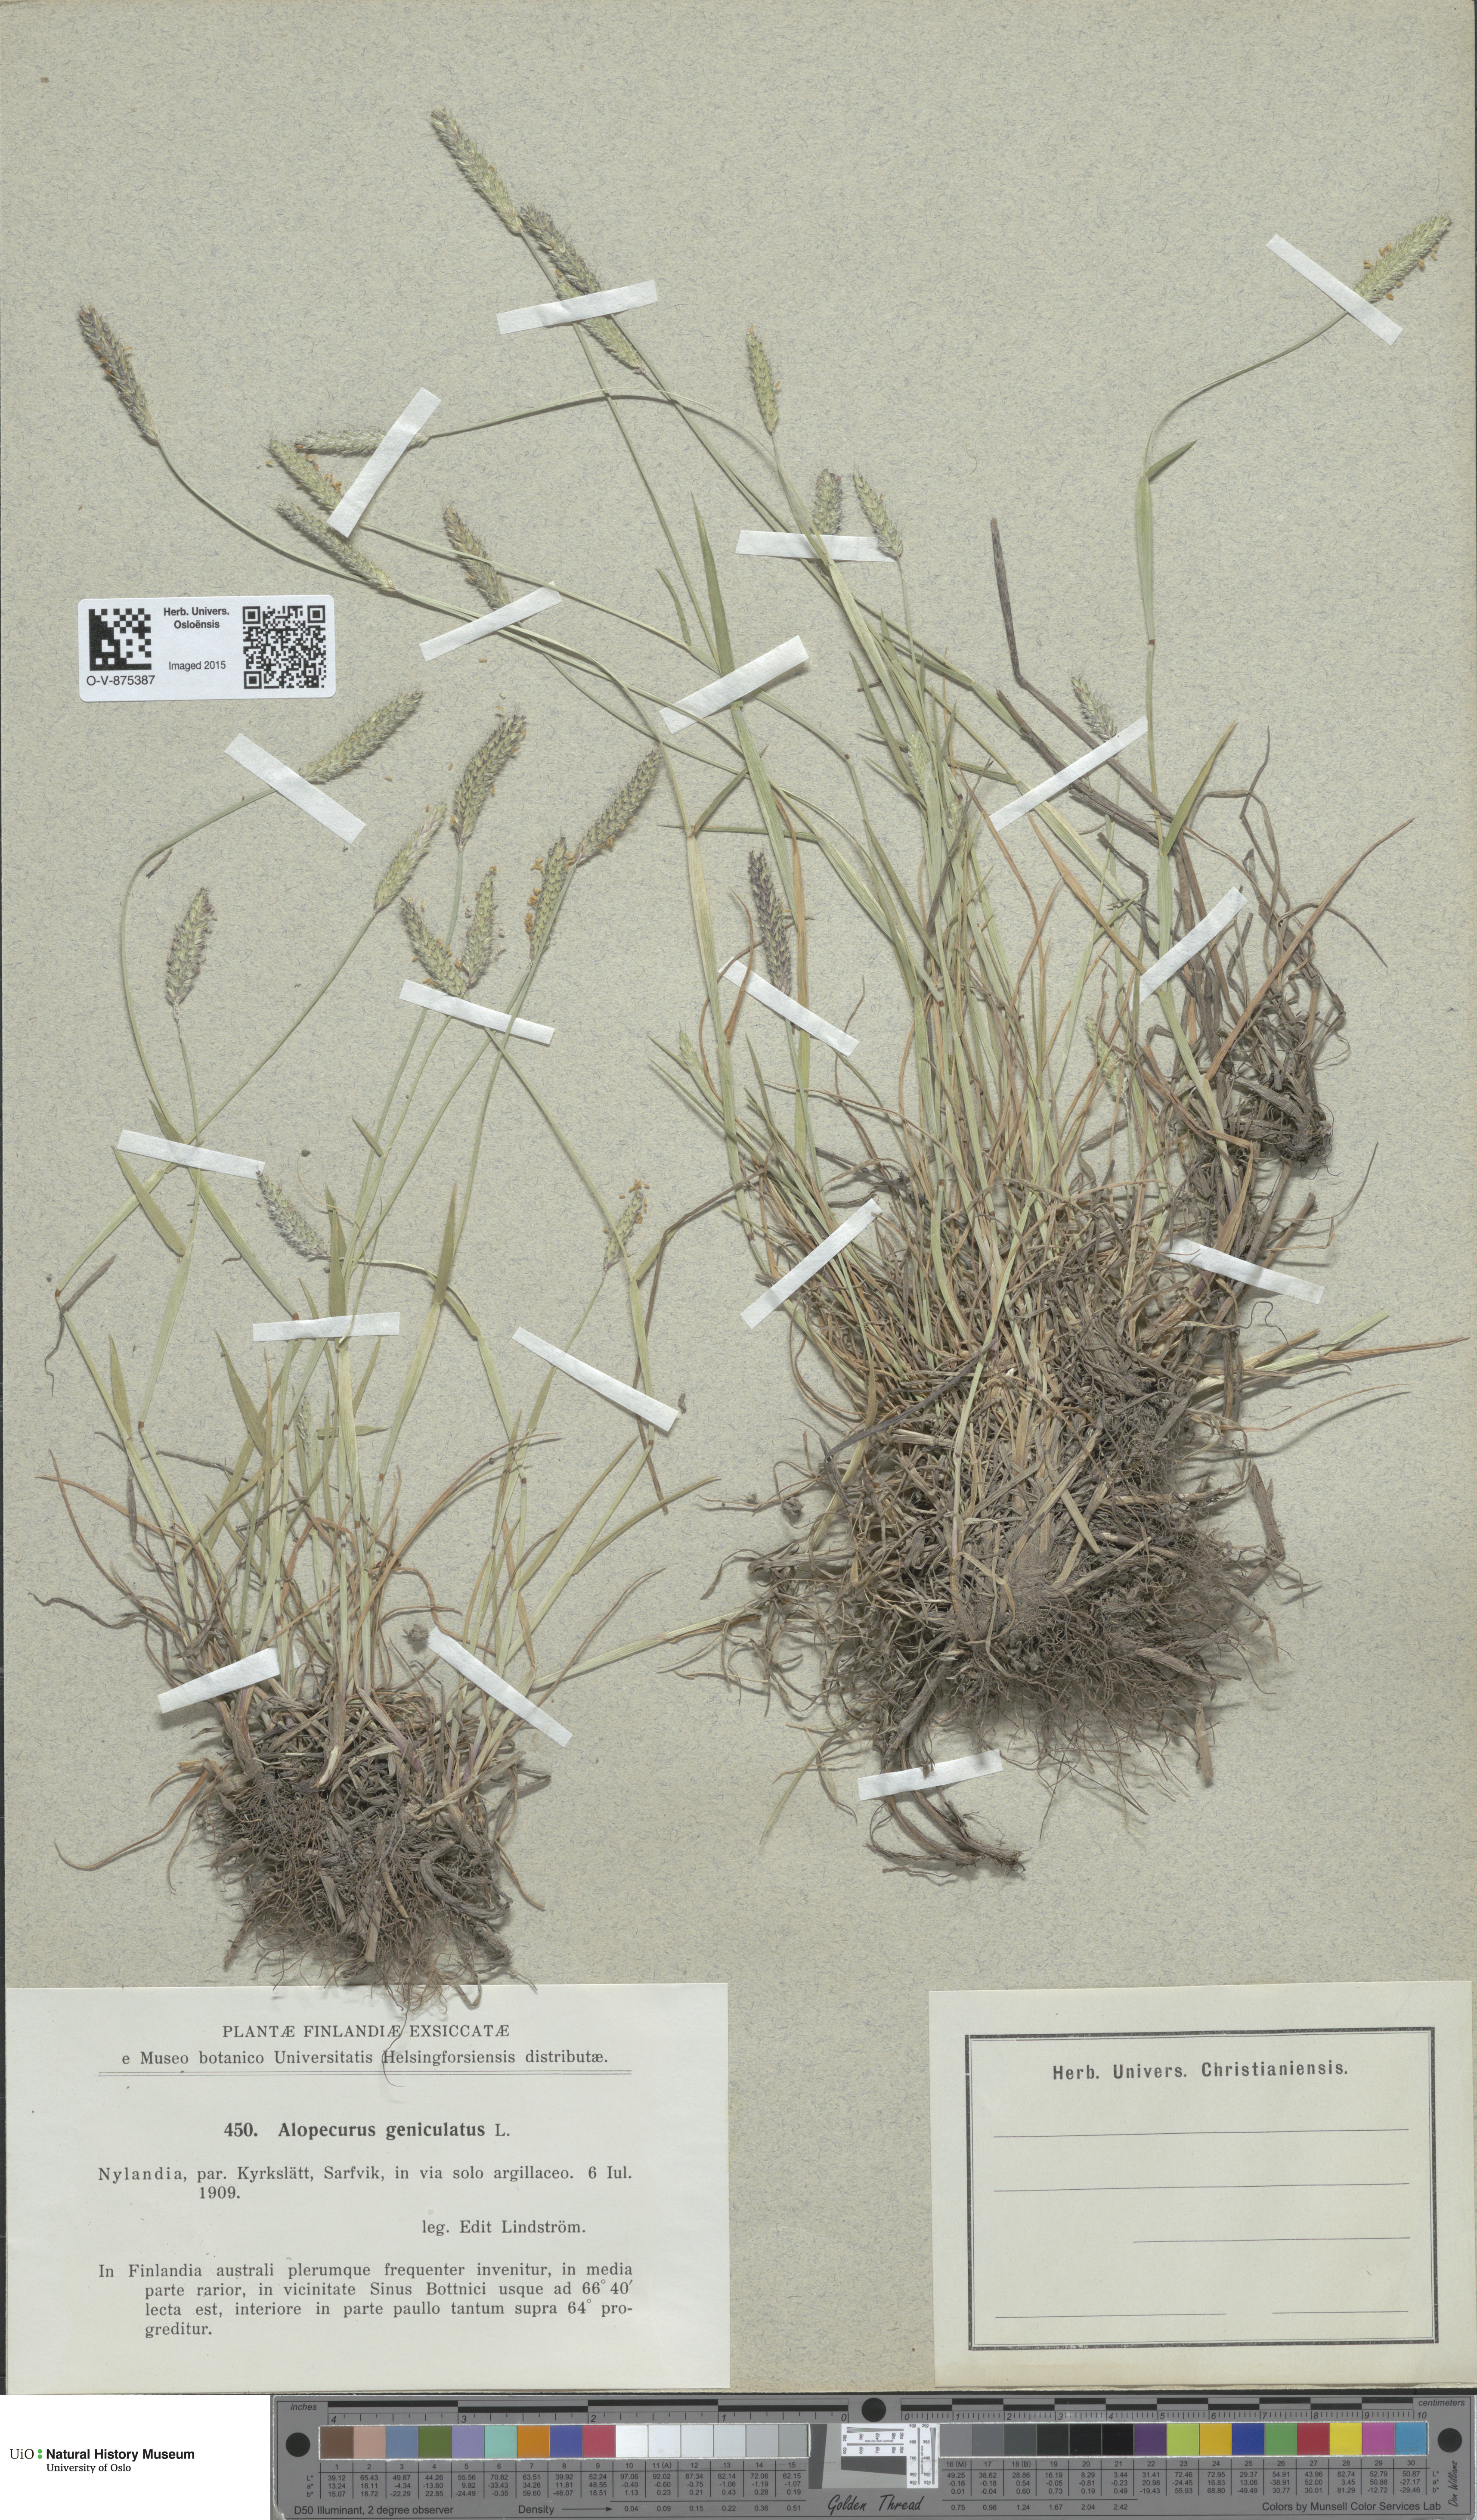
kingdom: Plantae
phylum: Tracheophyta
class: Liliopsida
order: Poales
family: Poaceae
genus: Alopecurus
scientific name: Alopecurus geniculatus
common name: Water foxtail
